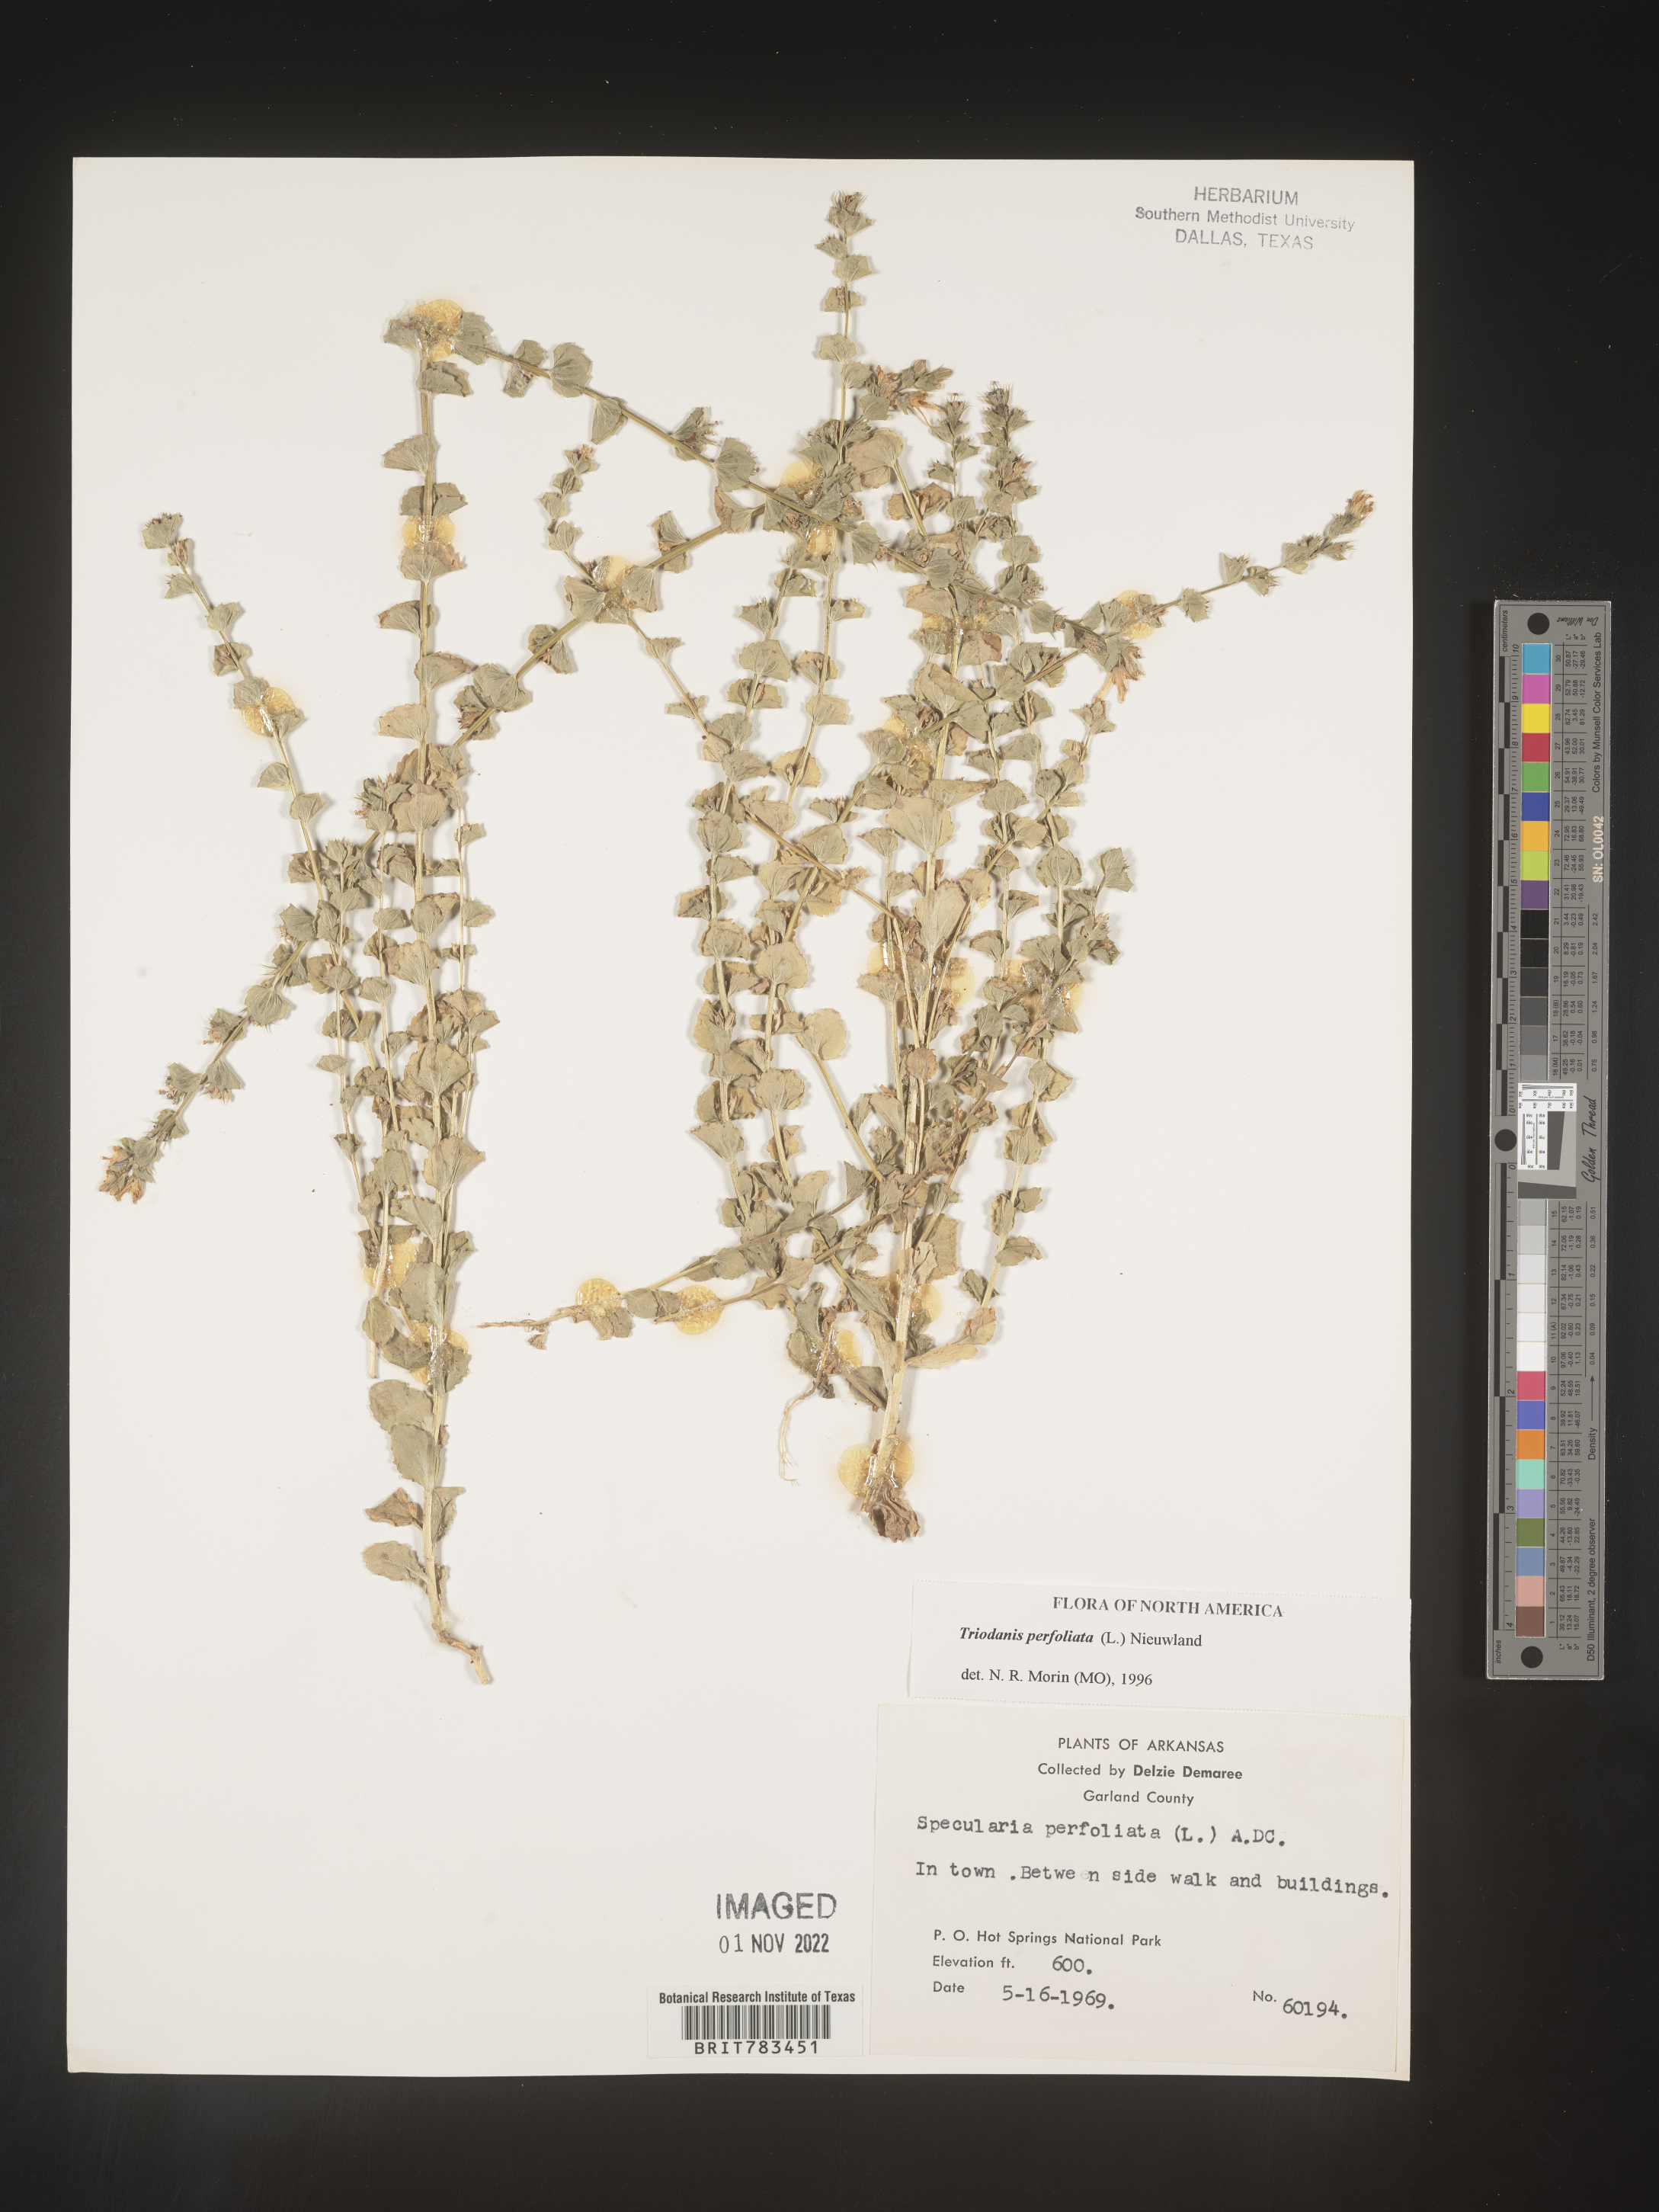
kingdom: Plantae
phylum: Tracheophyta
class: Magnoliopsida
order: Asterales
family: Campanulaceae
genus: Triodanis
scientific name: Triodanis perfoliata
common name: Clasping venus' looking-glass
